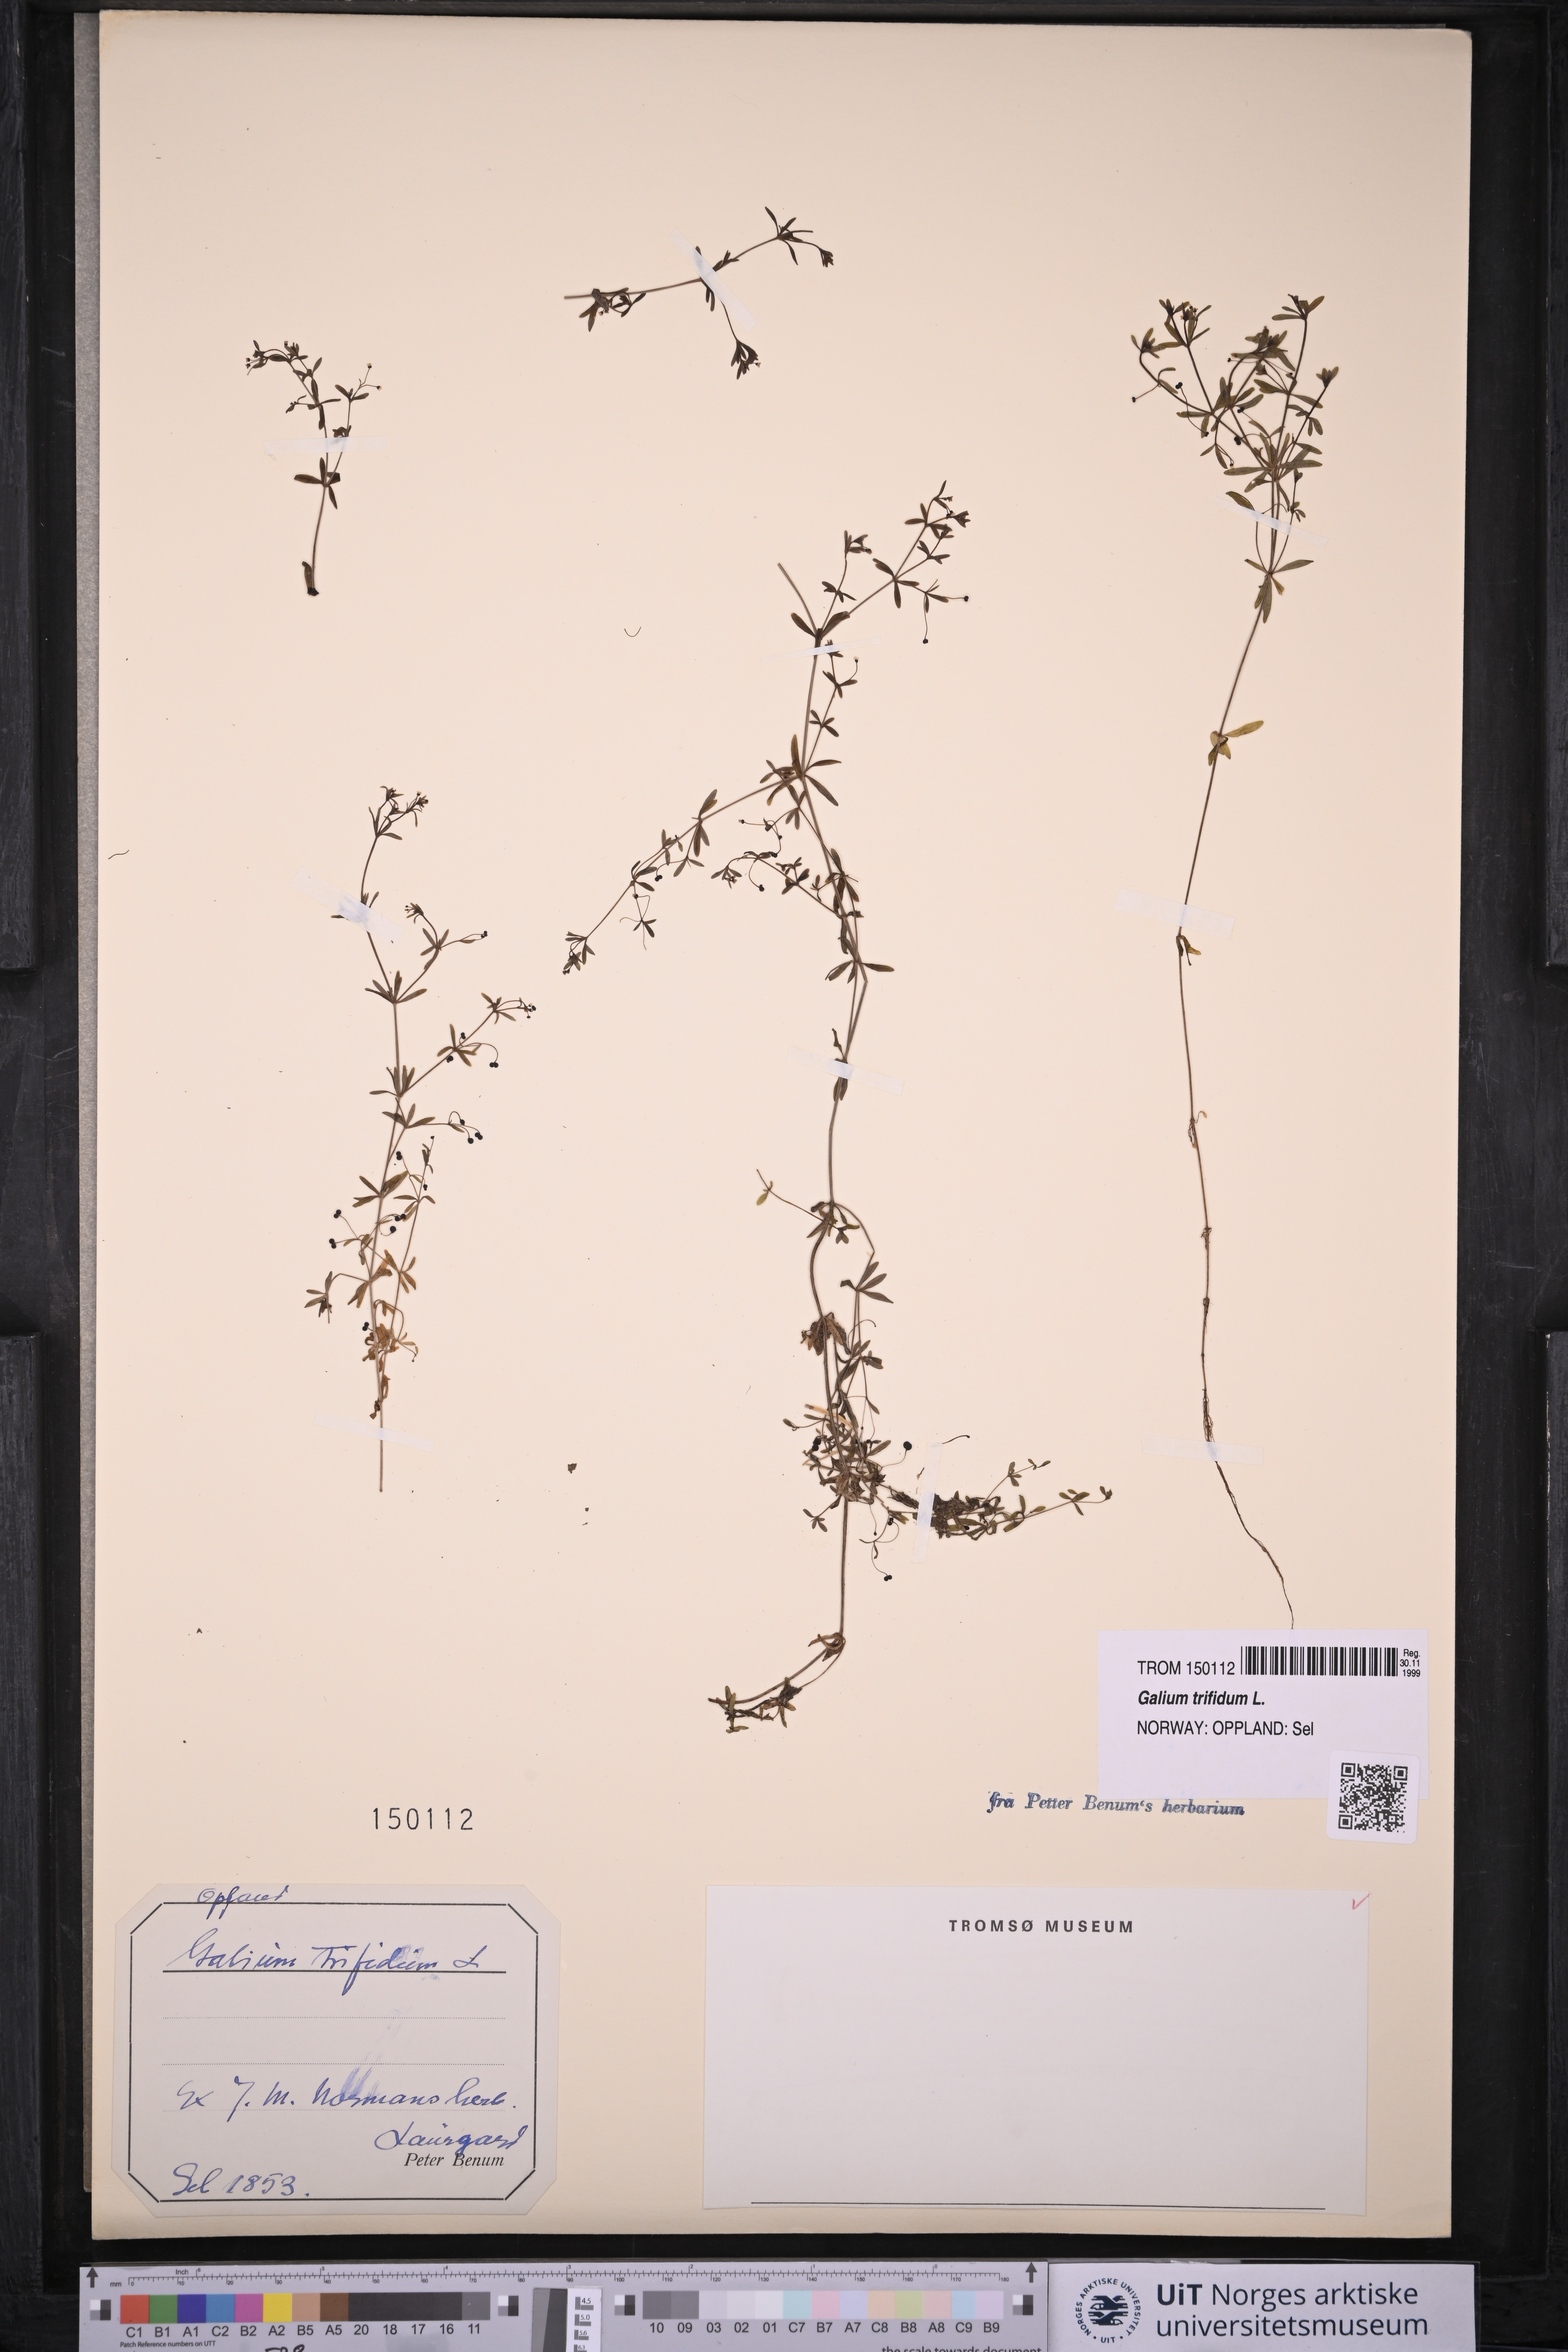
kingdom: Plantae
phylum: Tracheophyta
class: Magnoliopsida
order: Gentianales
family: Rubiaceae
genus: Galium
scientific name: Galium trifidum
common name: Small bedstraw
